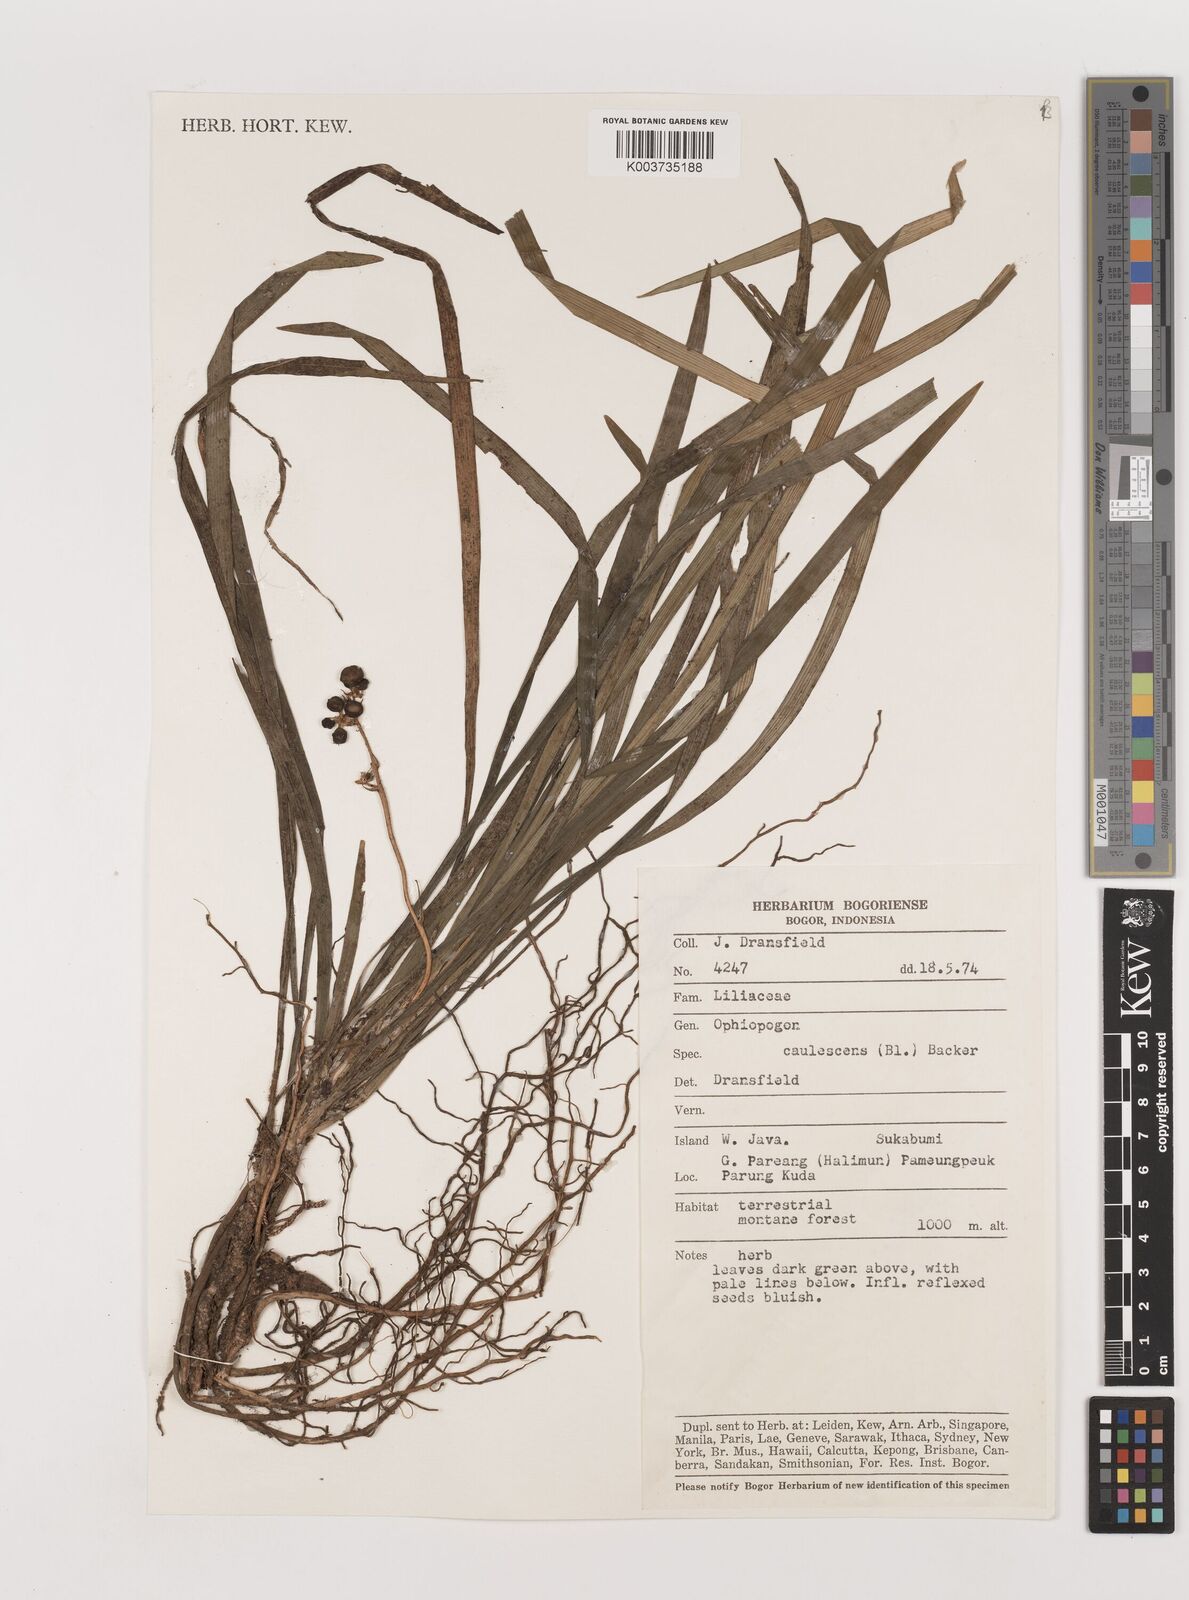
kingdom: Plantae
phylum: Tracheophyta
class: Liliopsida
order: Asparagales
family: Asparagaceae
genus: Ophiopogon
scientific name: Ophiopogon caulescens
